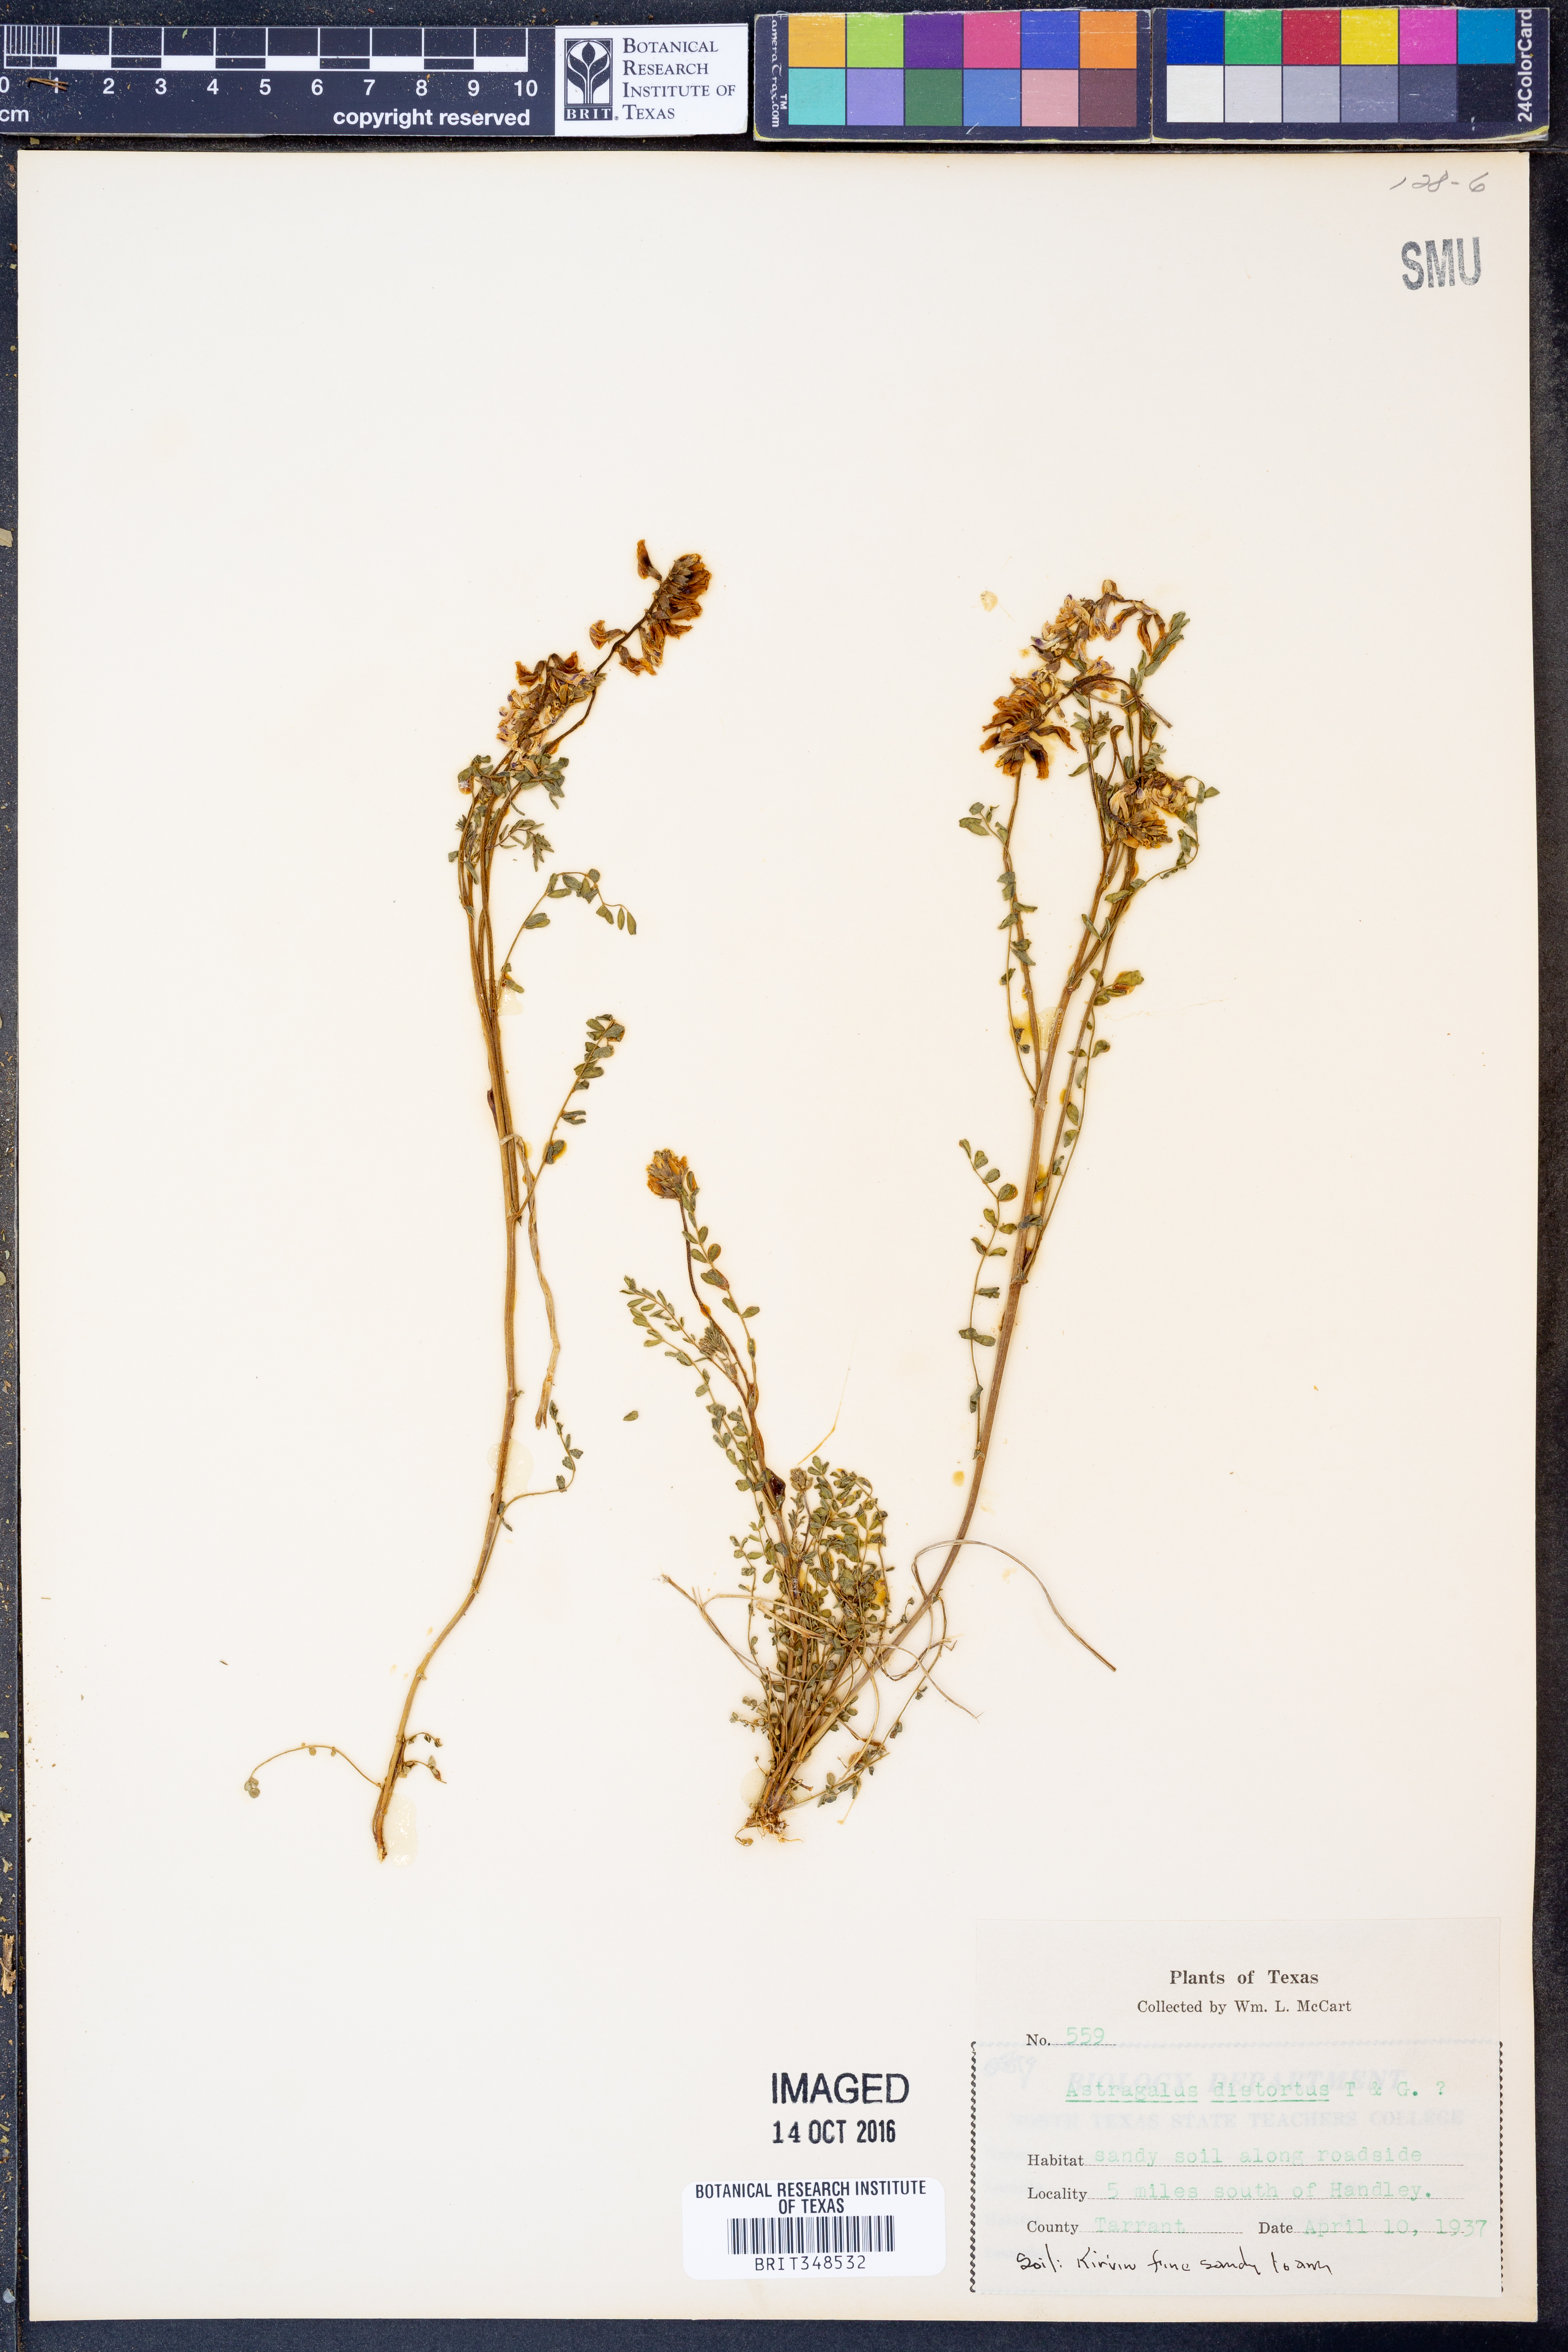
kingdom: Plantae
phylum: Tracheophyta
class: Magnoliopsida
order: Fabales
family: Fabaceae
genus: Astragalus
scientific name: Astragalus distortus
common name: Ozark milk-vetch
